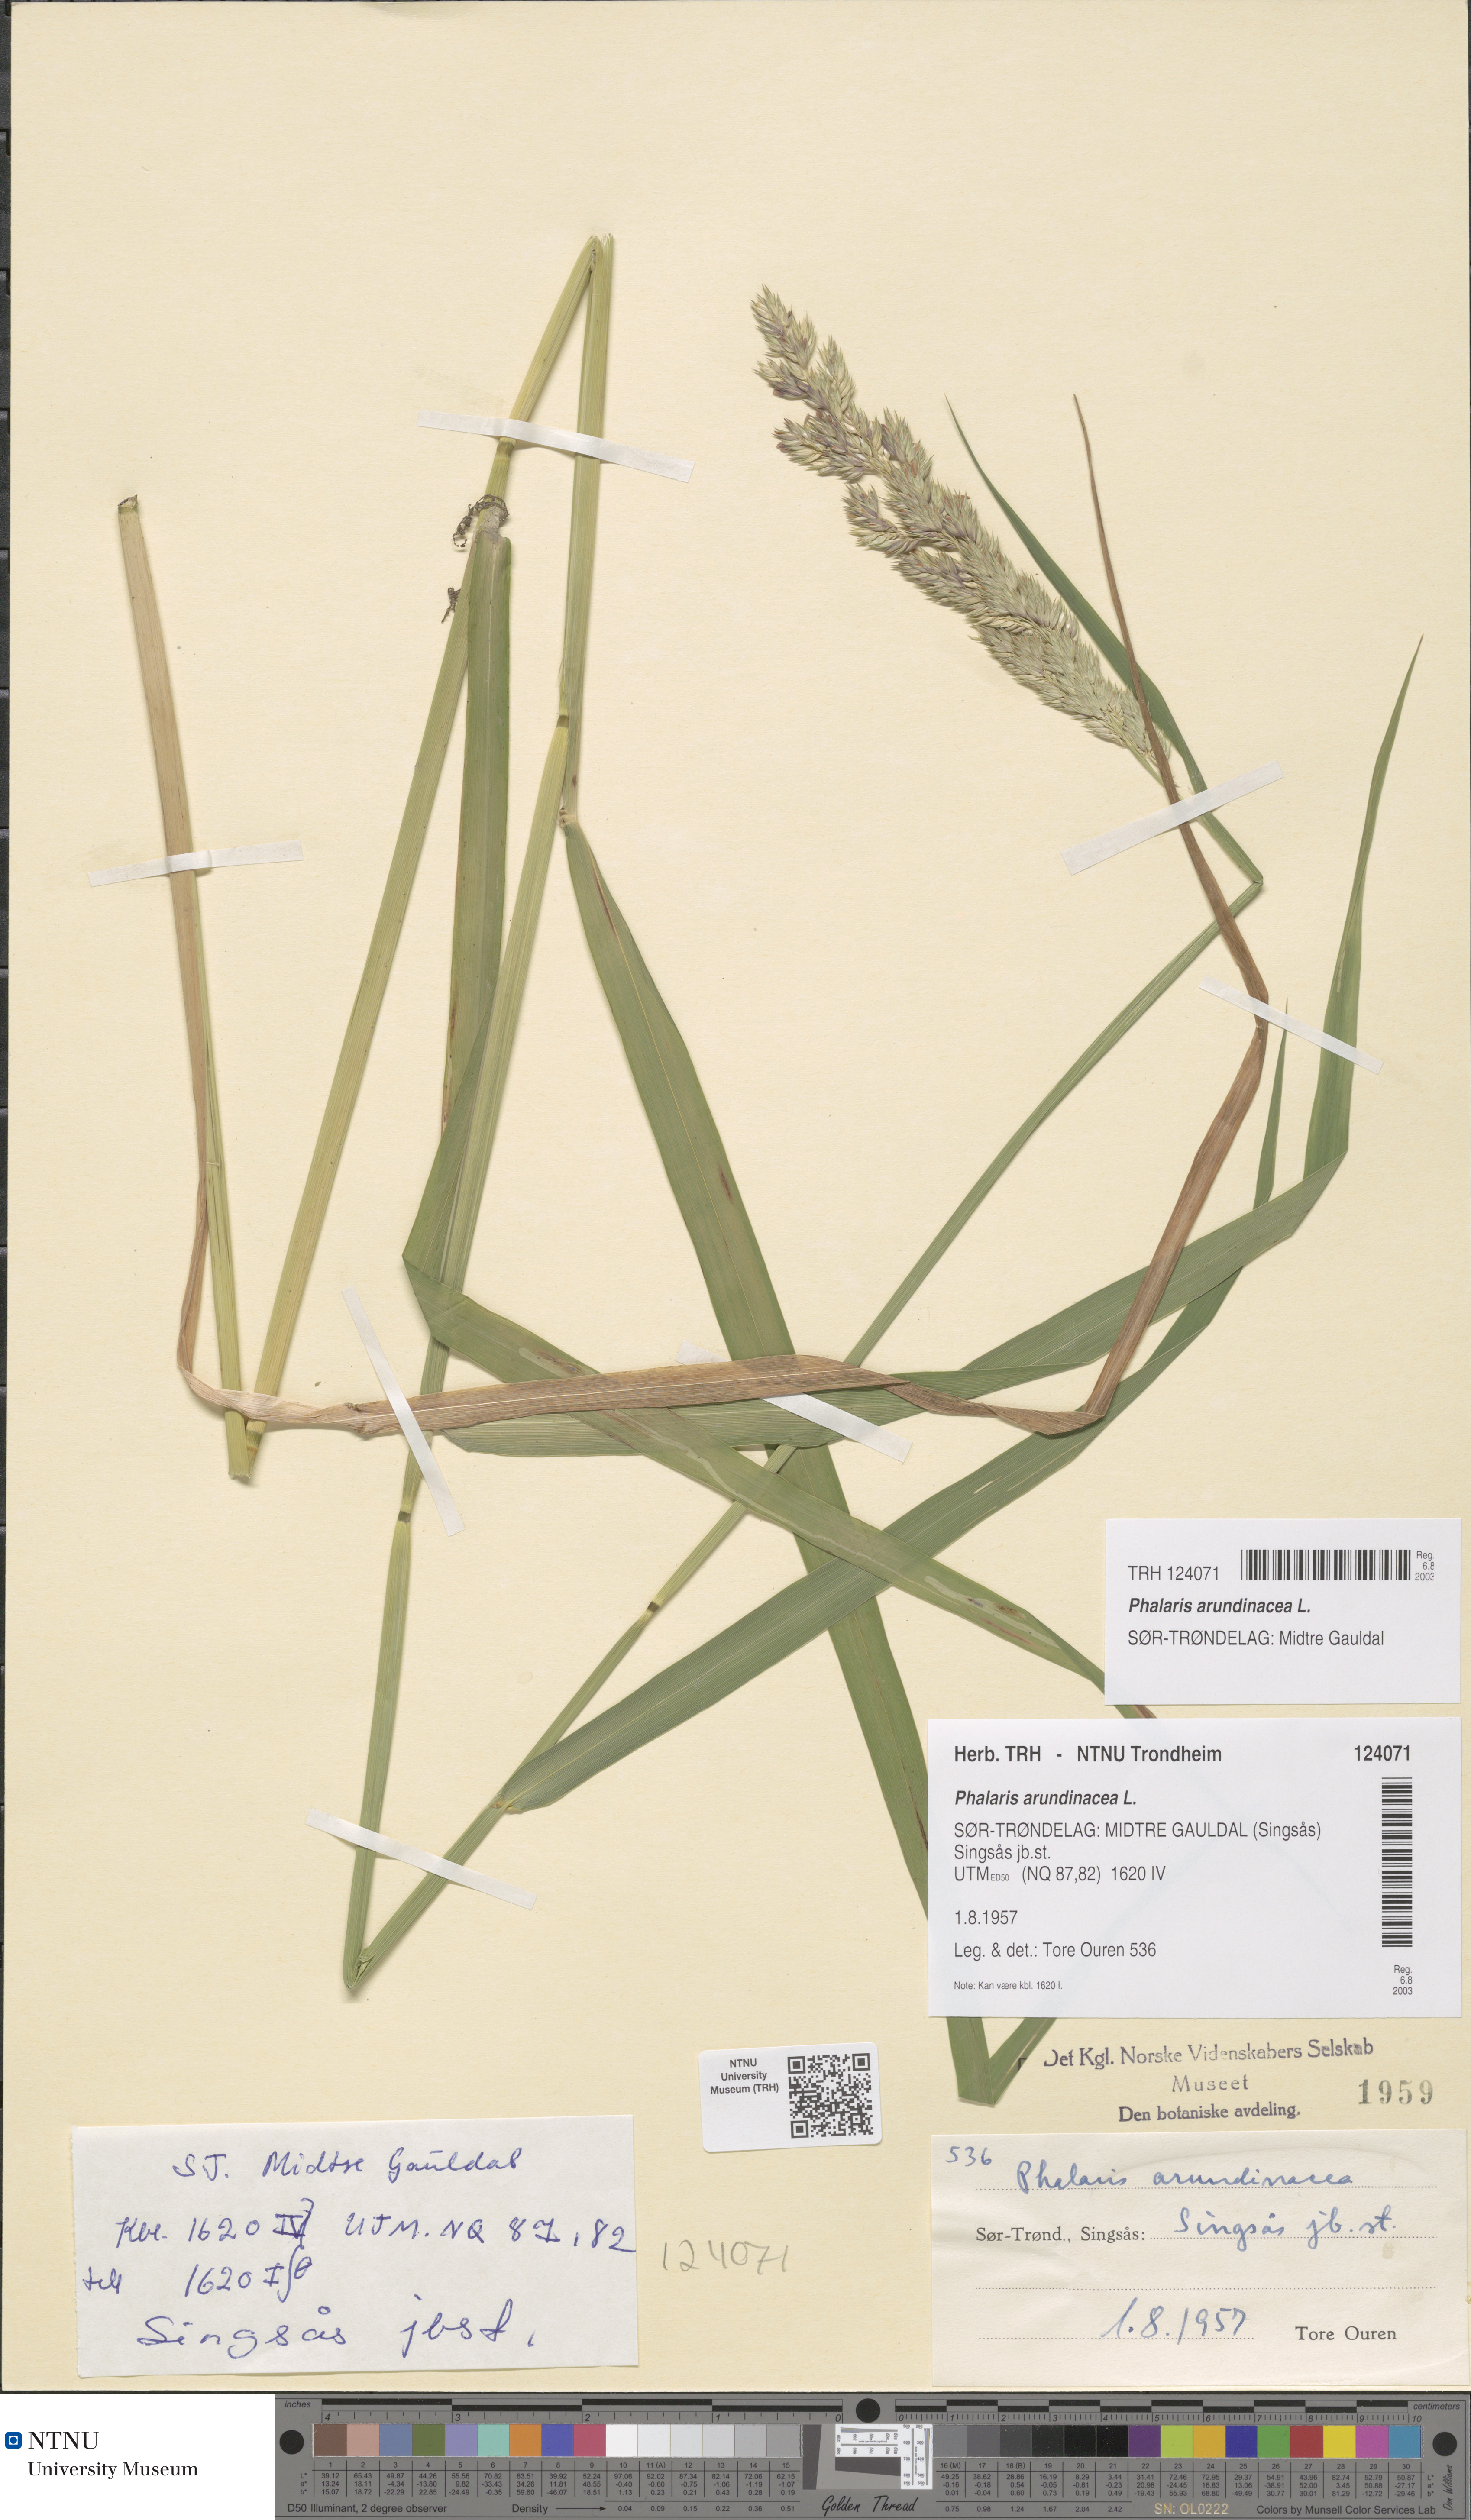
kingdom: Plantae
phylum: Tracheophyta
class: Liliopsida
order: Poales
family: Poaceae
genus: Phalaris
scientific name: Phalaris arundinacea
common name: Reed canary-grass
